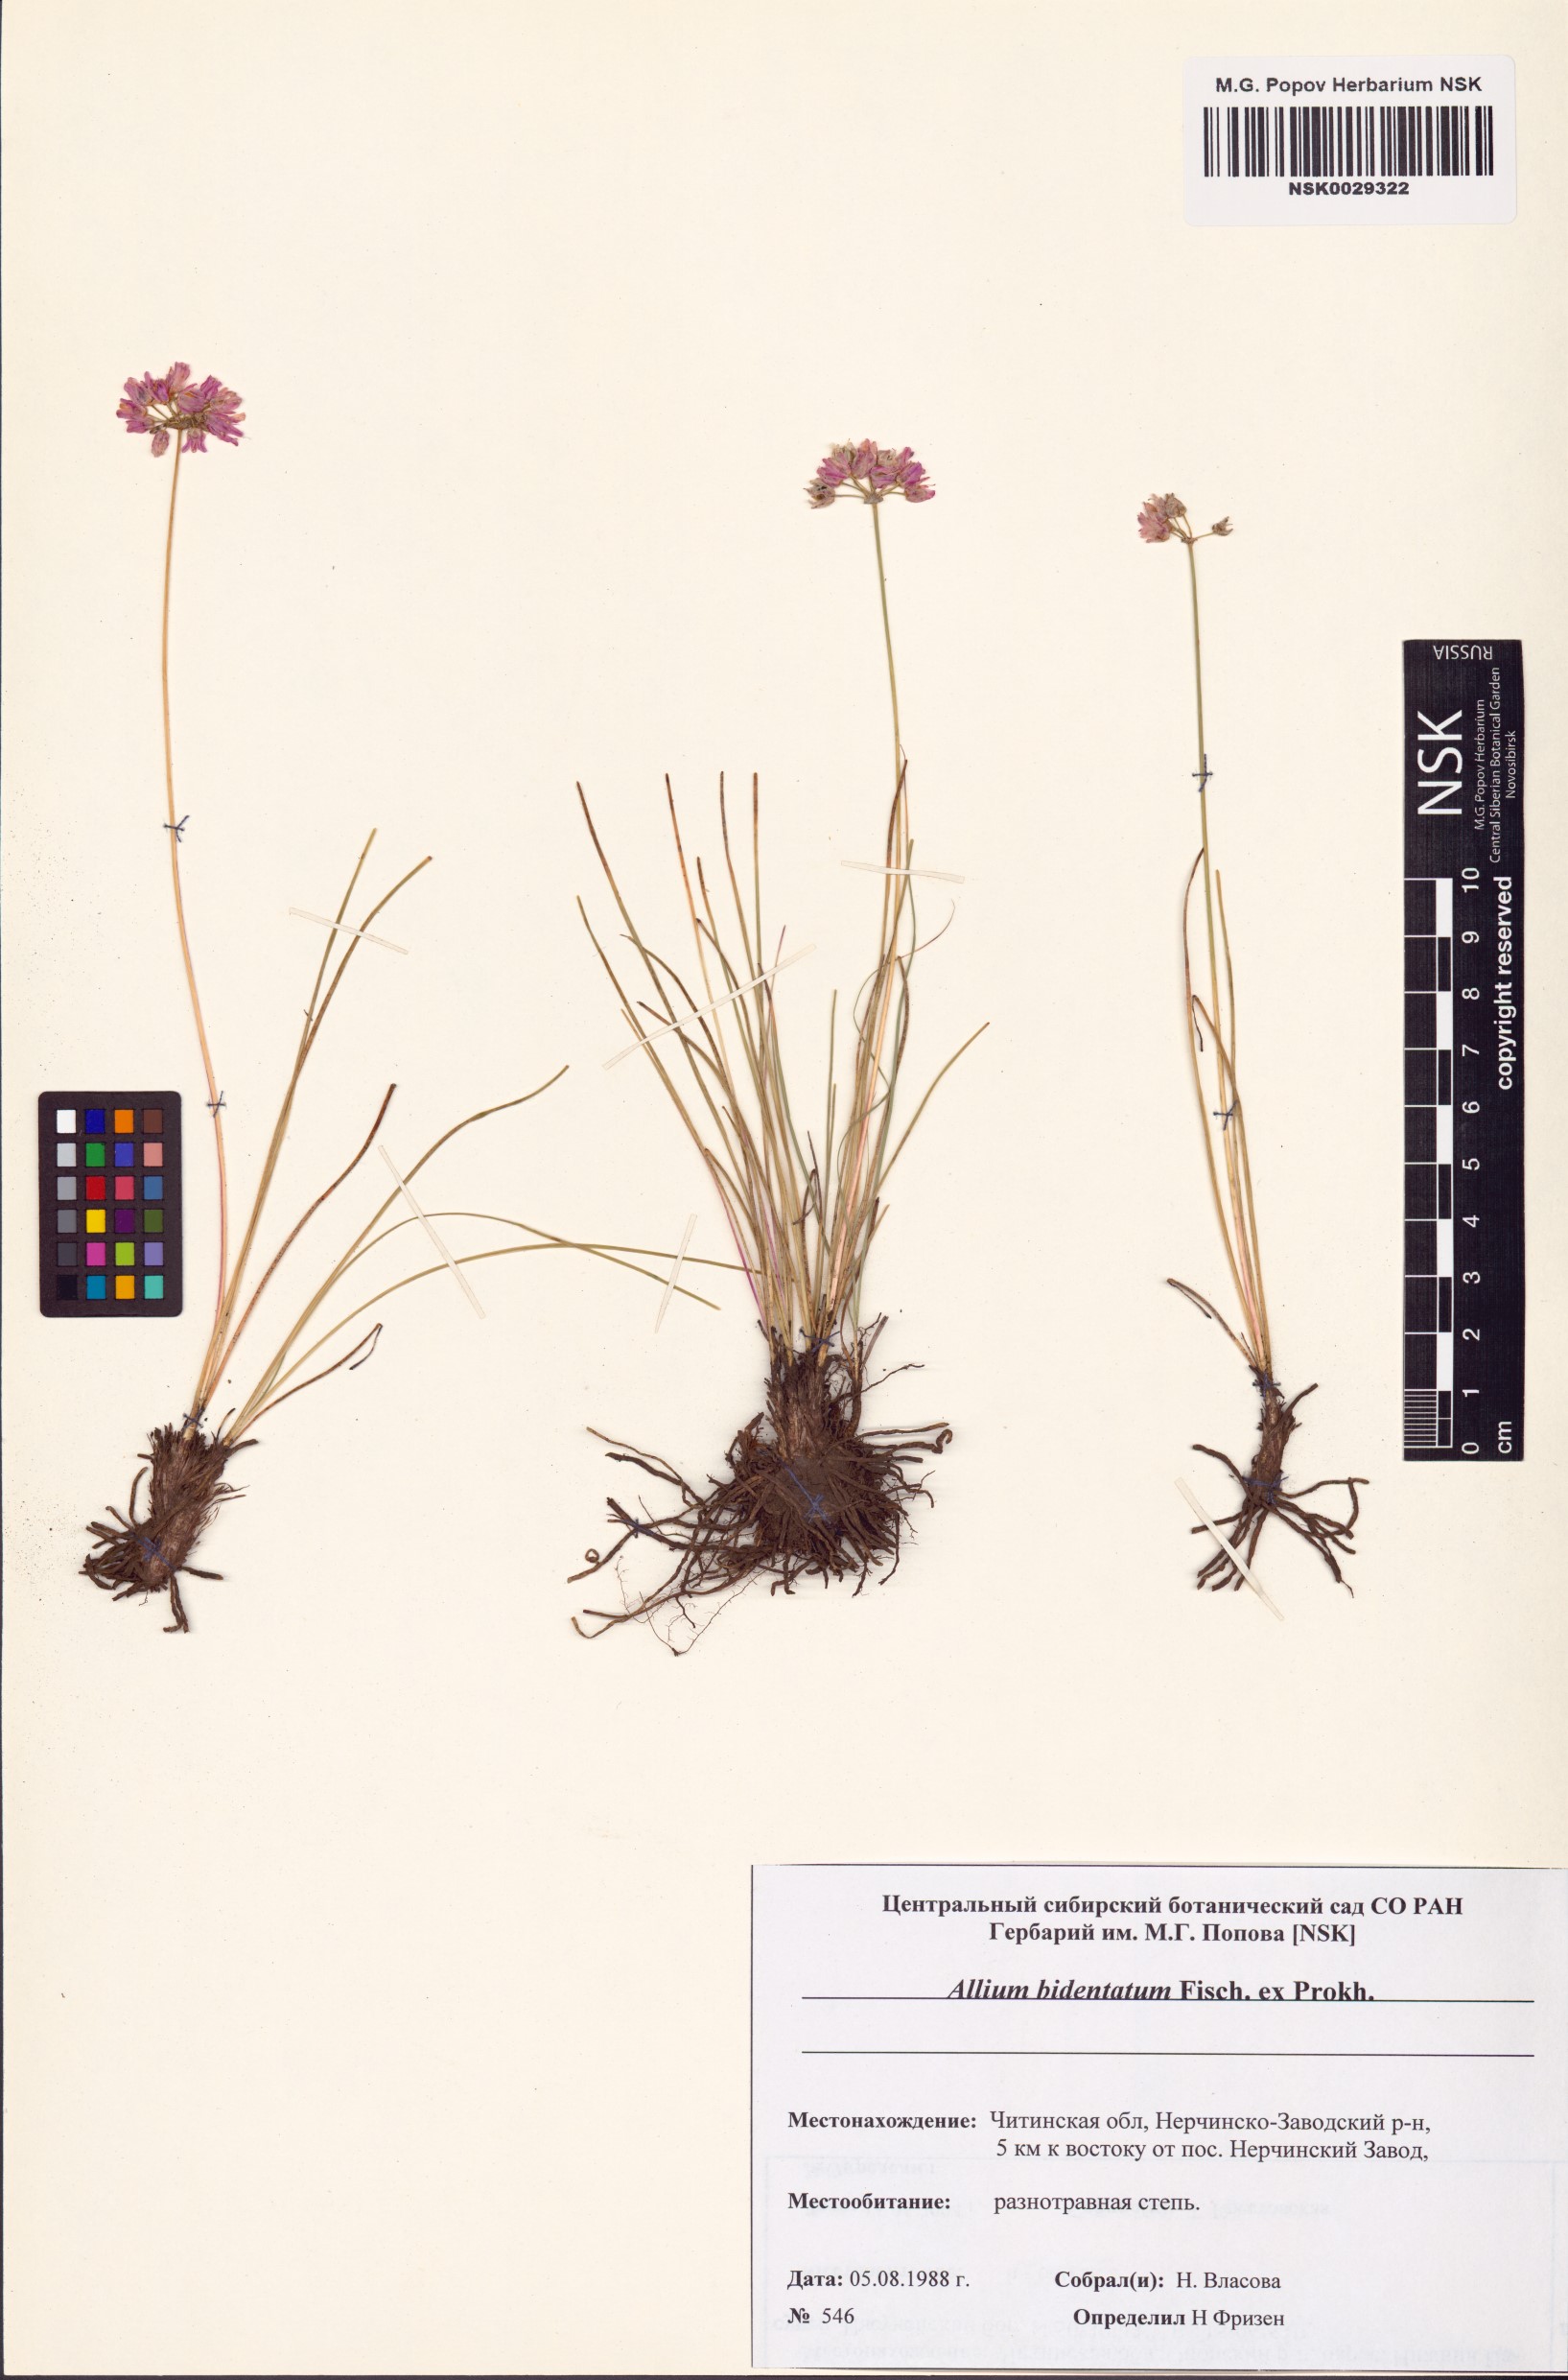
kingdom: Plantae
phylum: Tracheophyta
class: Liliopsida
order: Asparagales
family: Amaryllidaceae
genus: Allium
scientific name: Allium bidentatum
